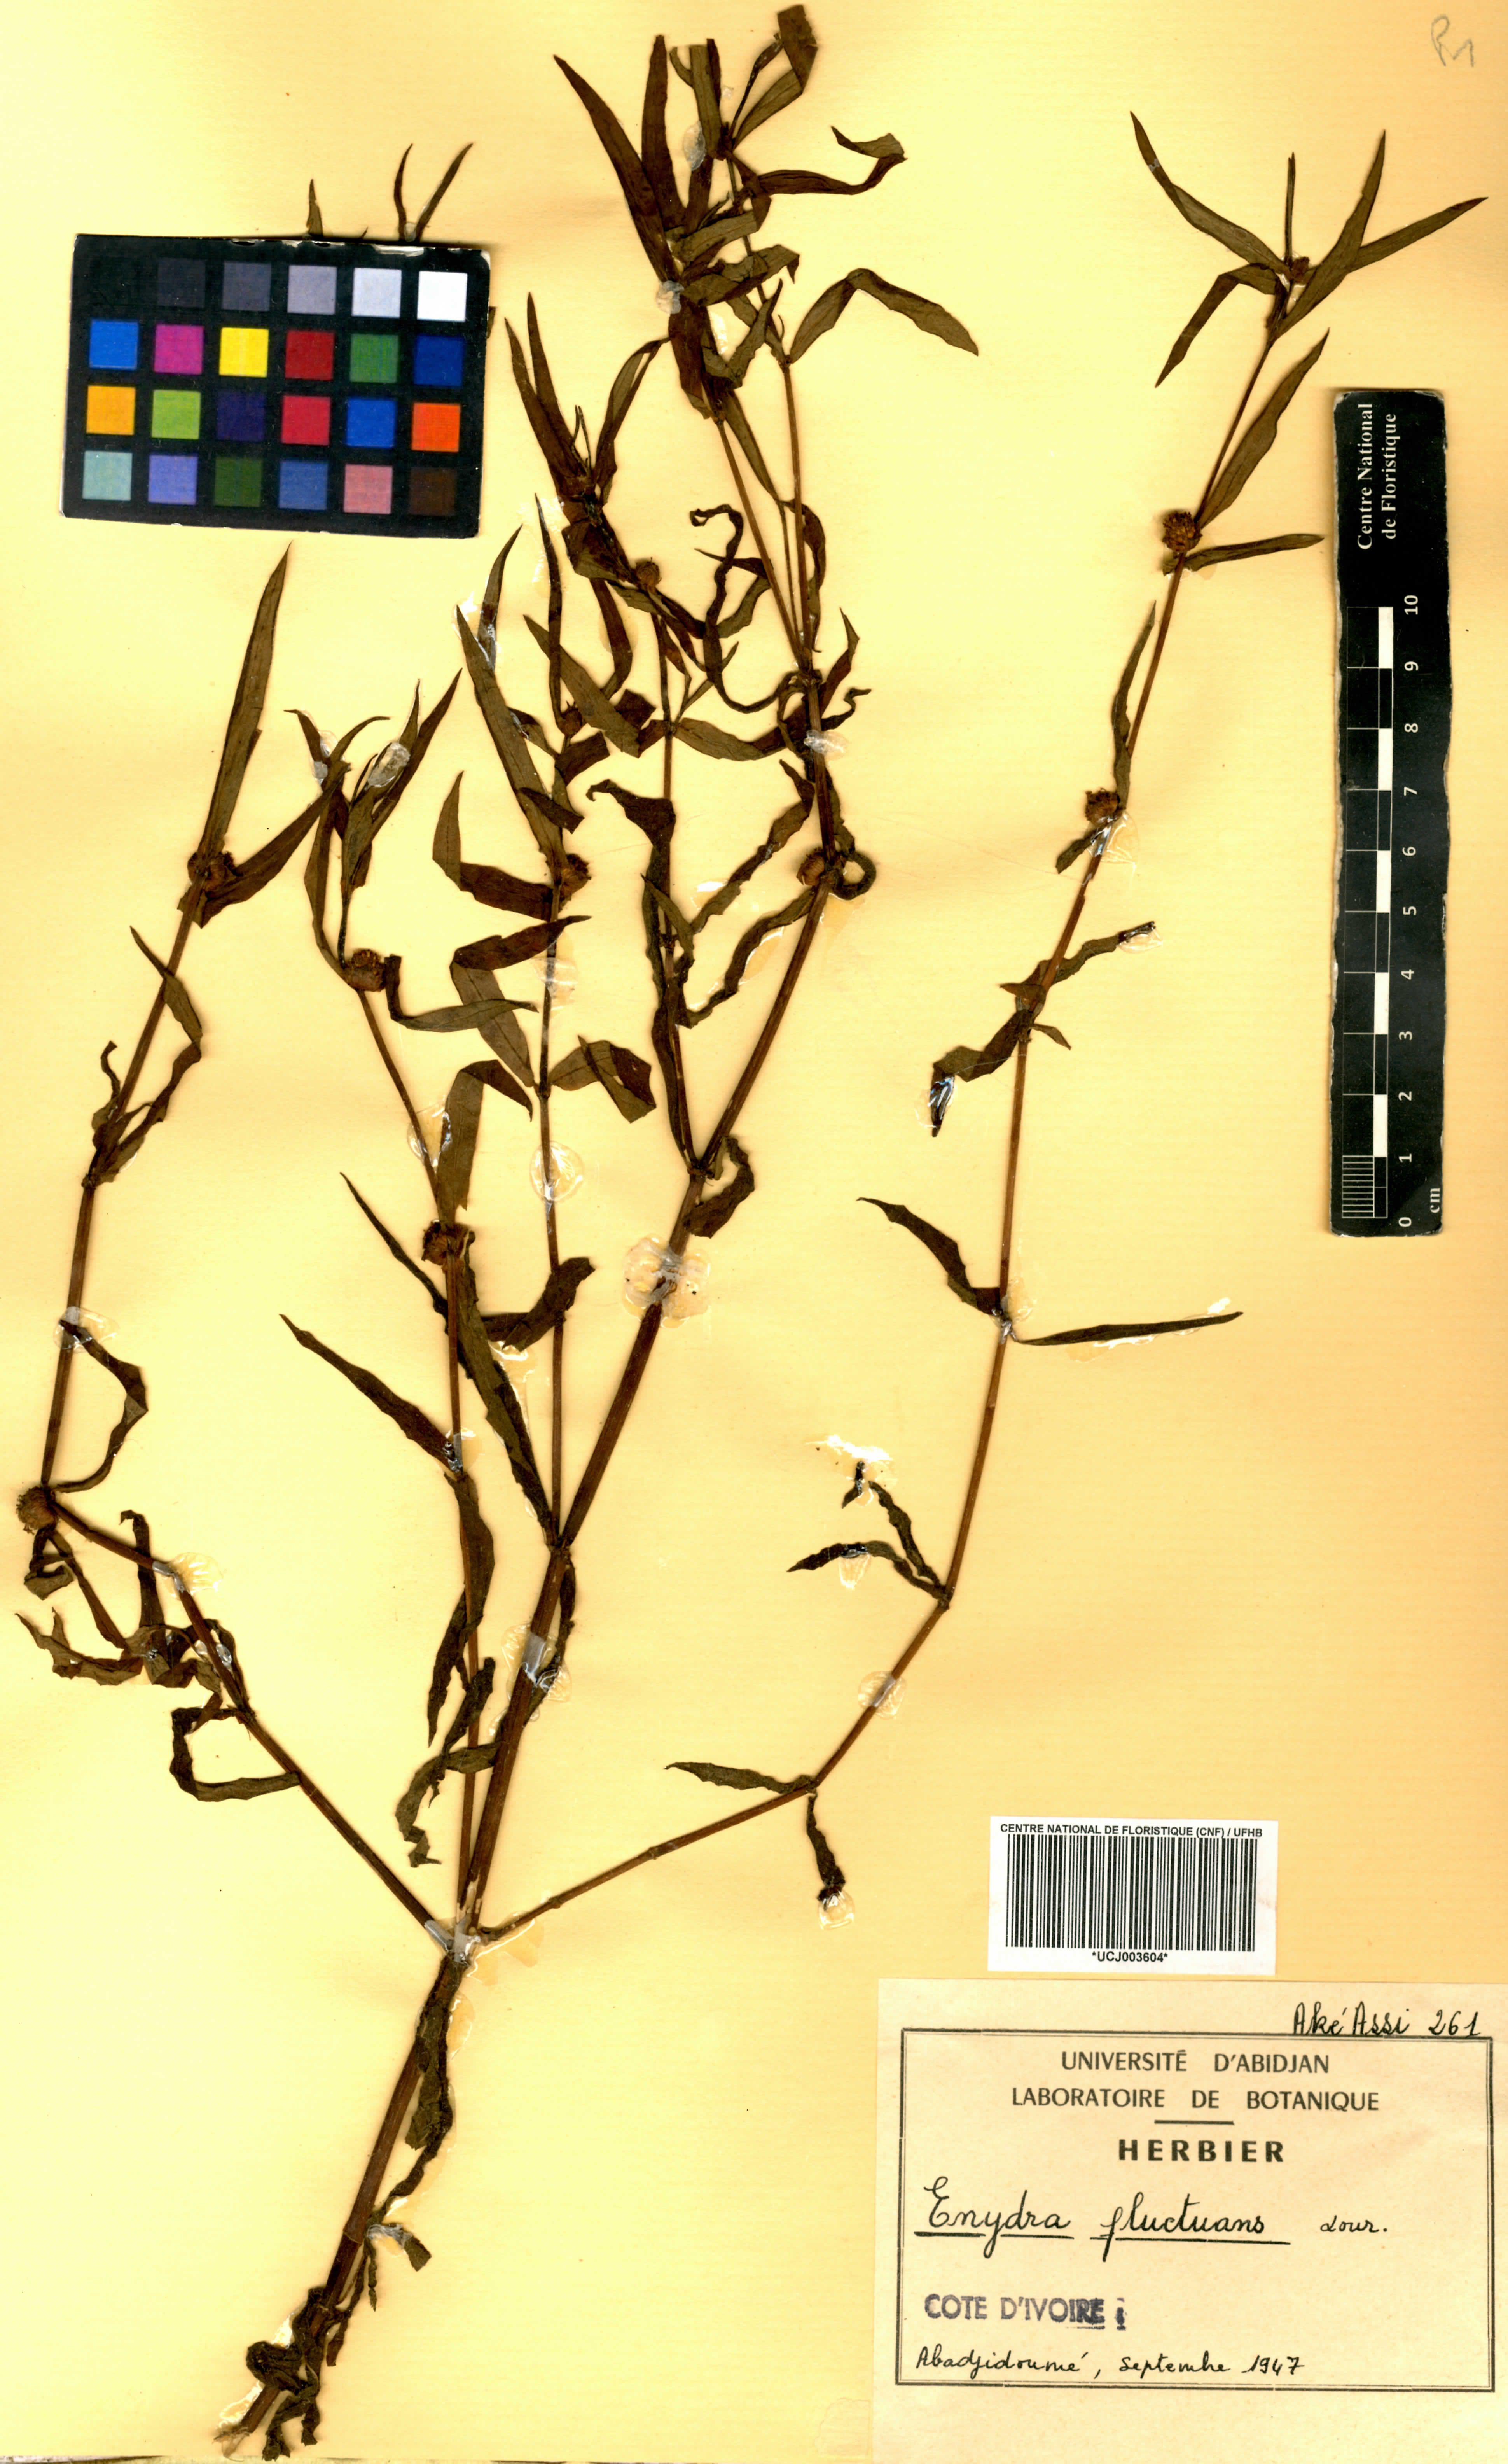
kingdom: Plantae
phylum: Tracheophyta
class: Magnoliopsida
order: Asterales
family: Asteraceae
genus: Enydra
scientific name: Enydra fluctuans
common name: Buffalo spinach
